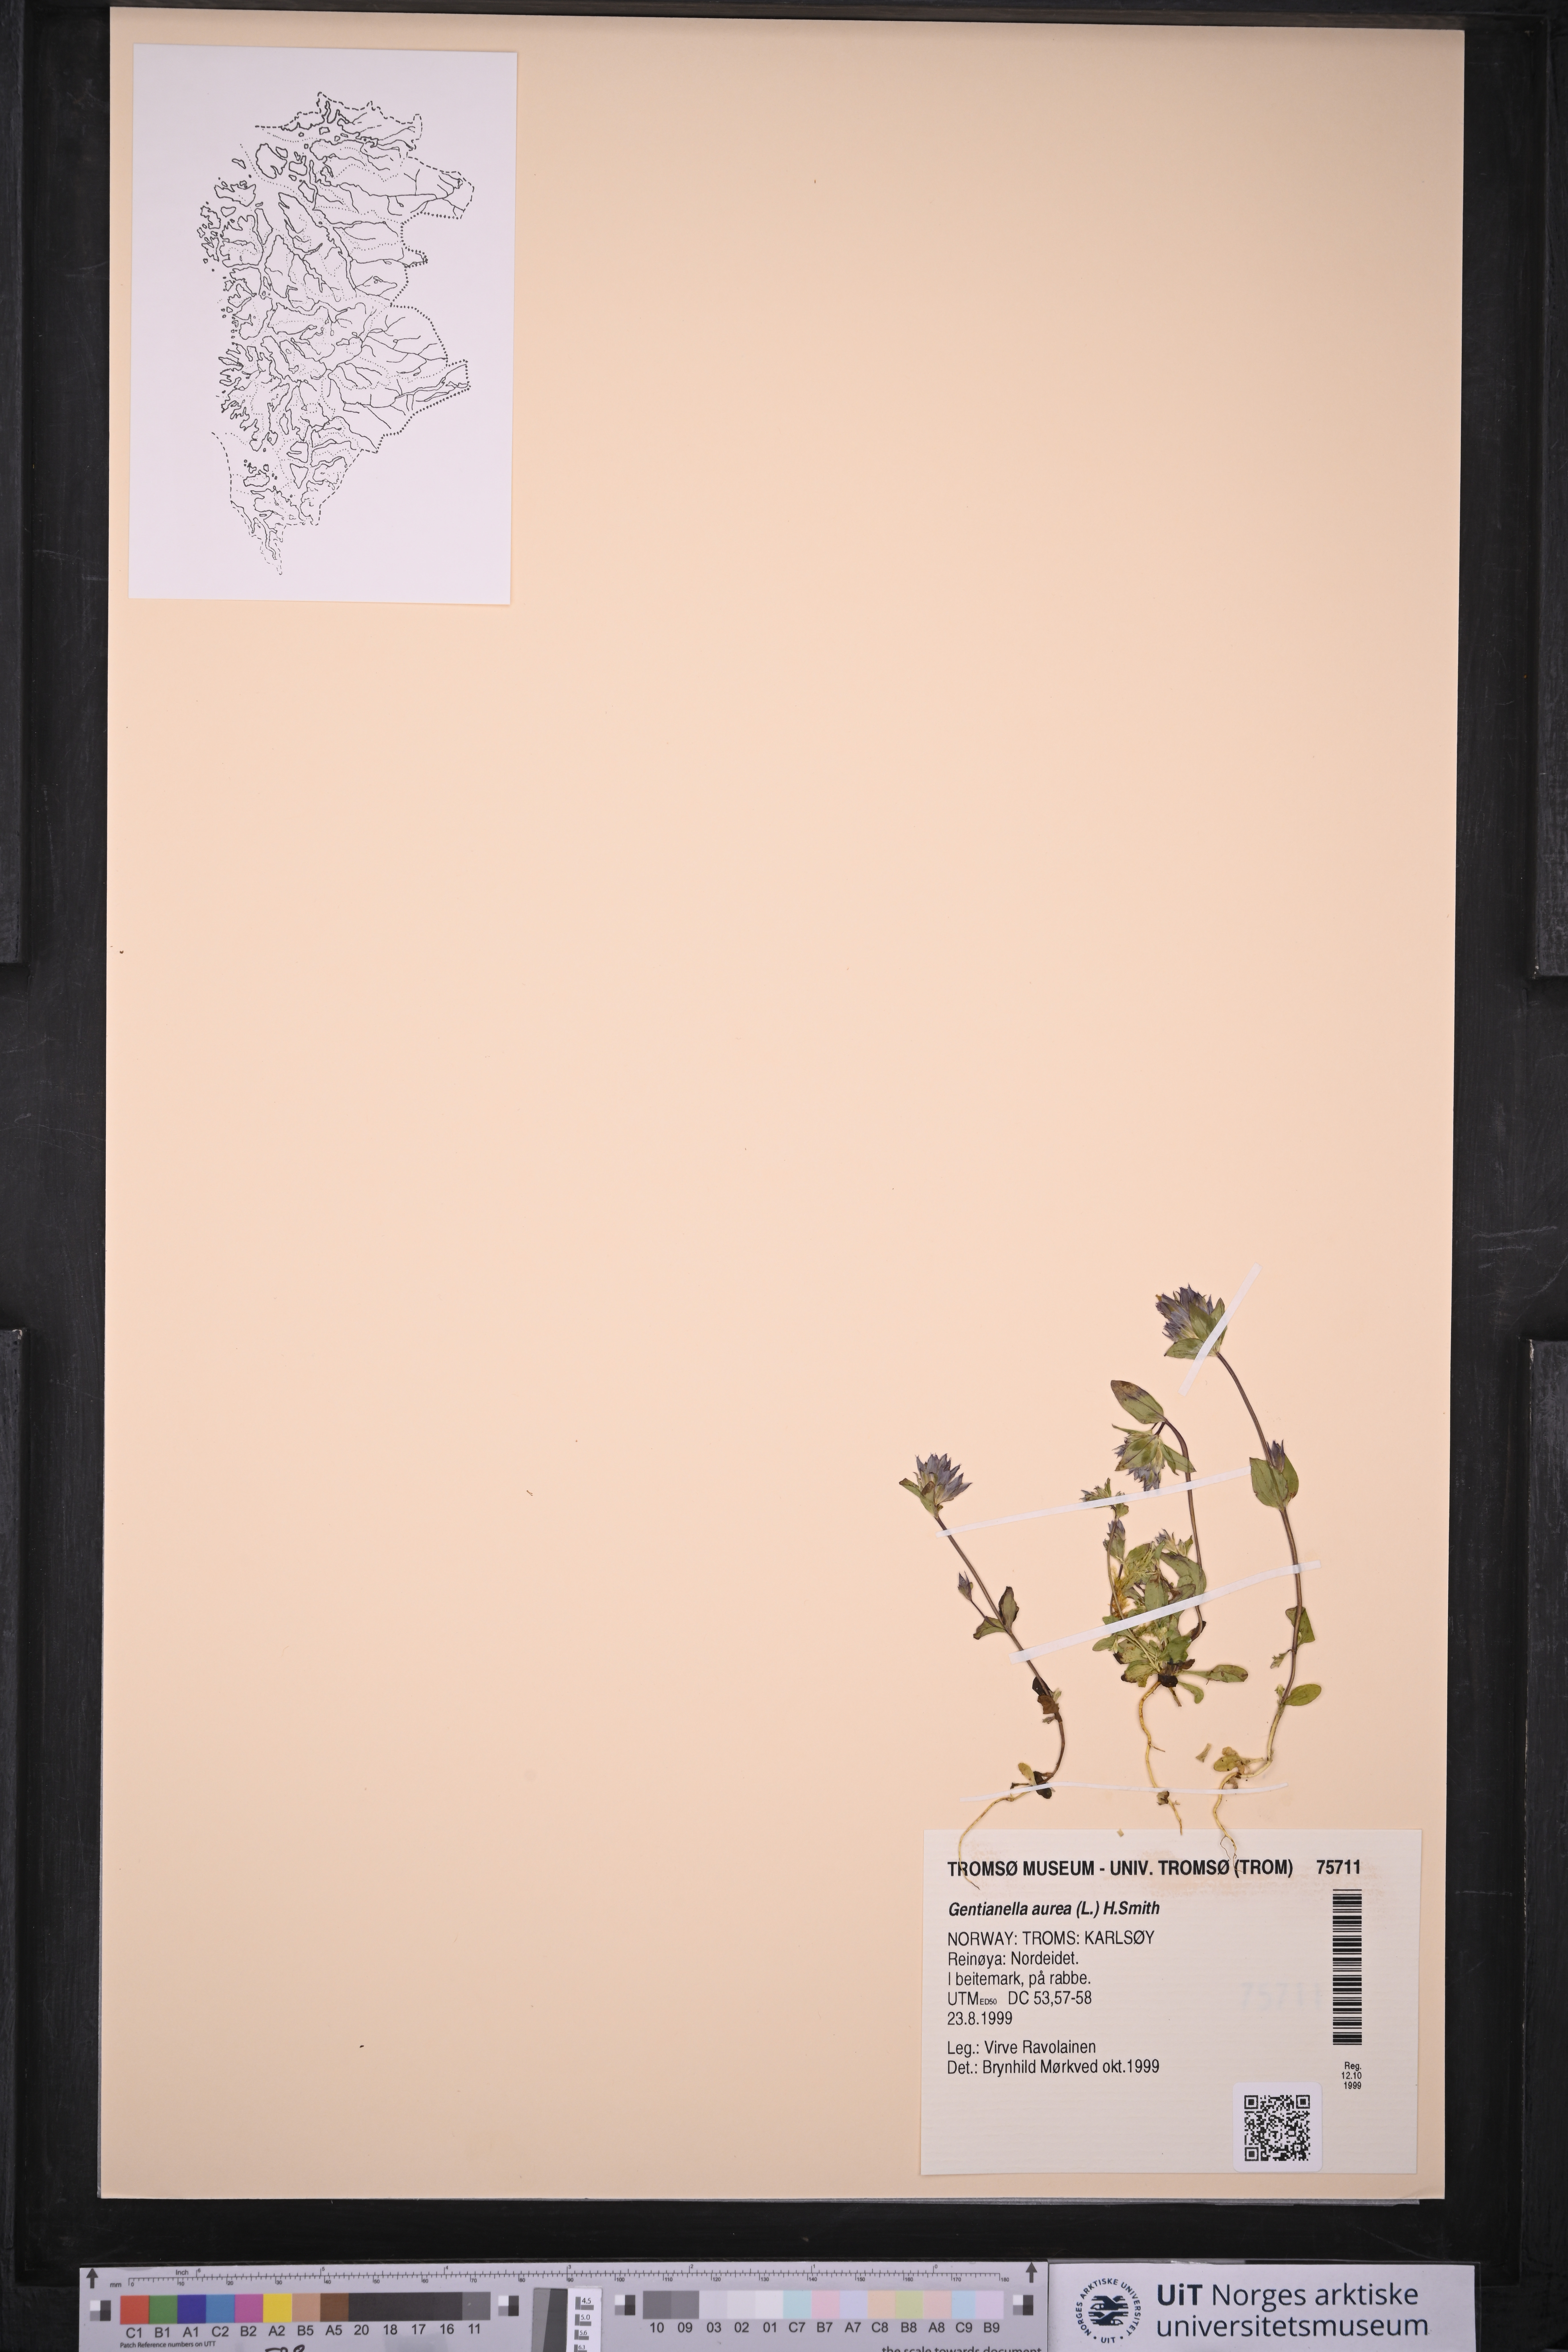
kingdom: Plantae
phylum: Tracheophyta
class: Magnoliopsida
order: Gentianales
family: Gentianaceae
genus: Gentianella
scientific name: Gentianella aurea
